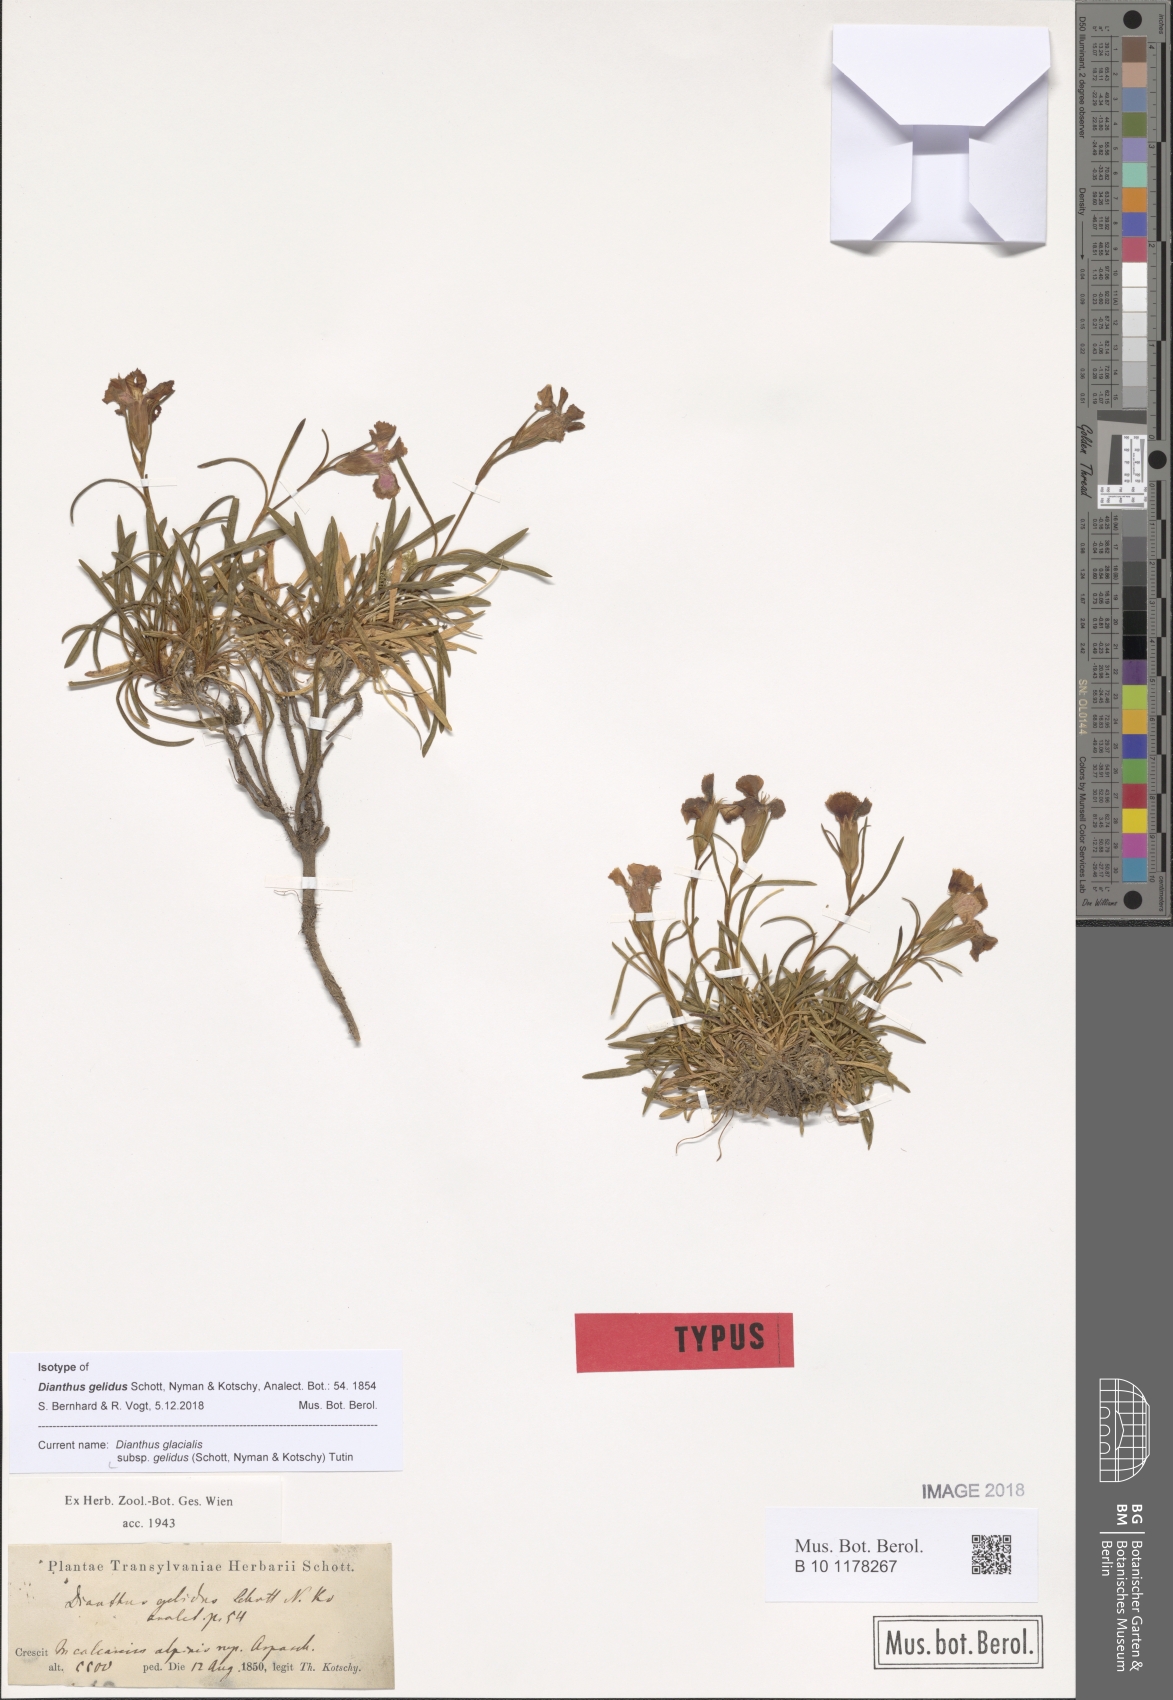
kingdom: Plantae
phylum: Tracheophyta
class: Magnoliopsida
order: Caryophyllales
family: Caryophyllaceae
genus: Dianthus
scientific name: Dianthus glacialis
